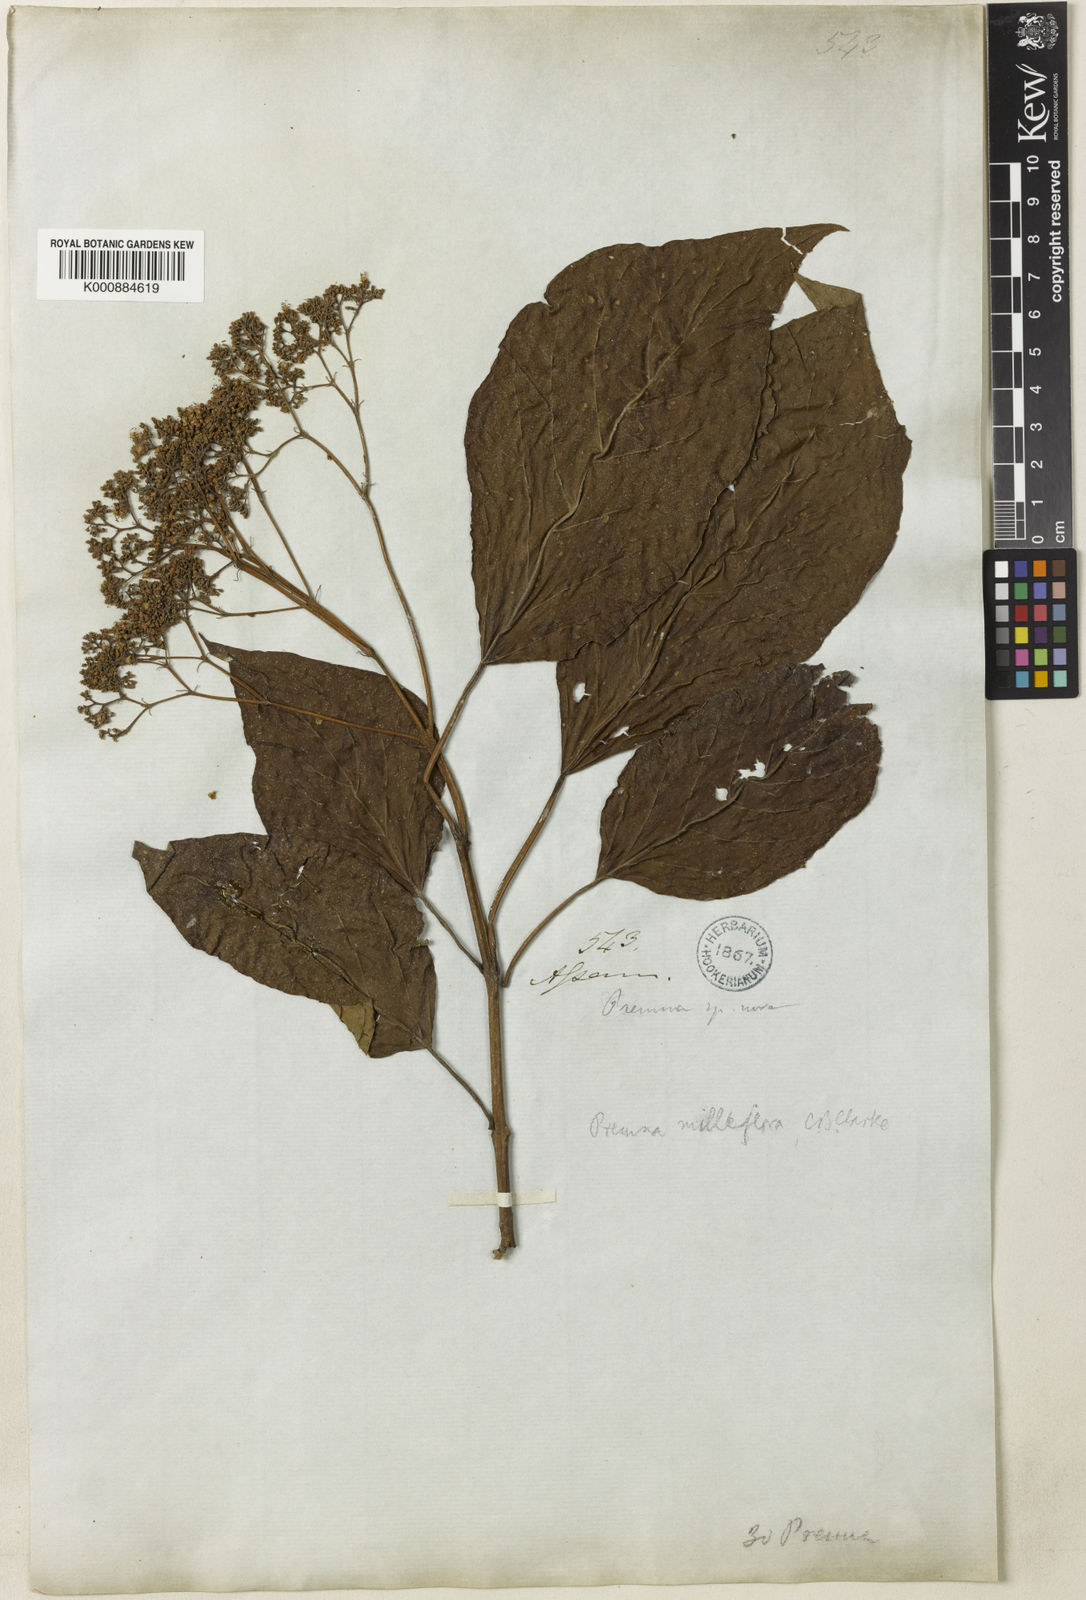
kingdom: Plantae
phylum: Tracheophyta
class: Magnoliopsida
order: Lamiales
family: Lamiaceae
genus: Premna
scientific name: Premna milleflora
